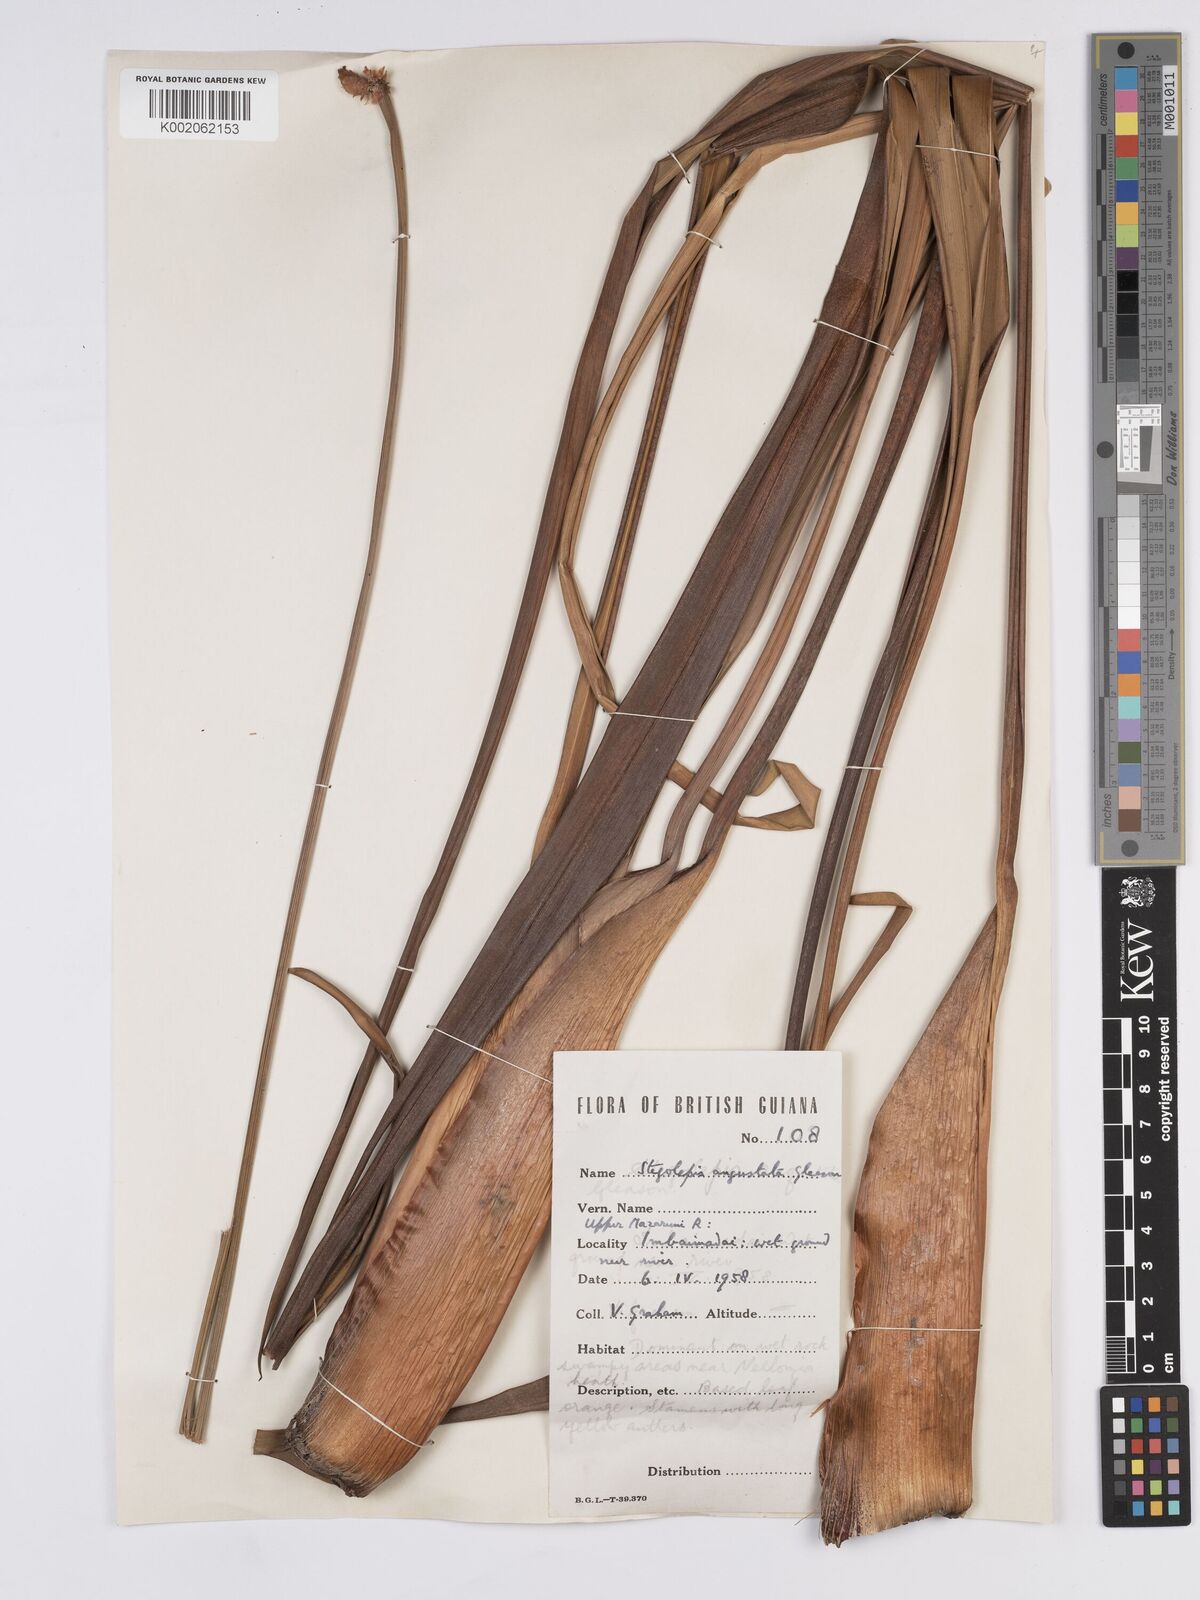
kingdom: Plantae
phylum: Tracheophyta
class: Liliopsida
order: Poales
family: Rapateaceae
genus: Stegolepis
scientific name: Stegolepis angustata
